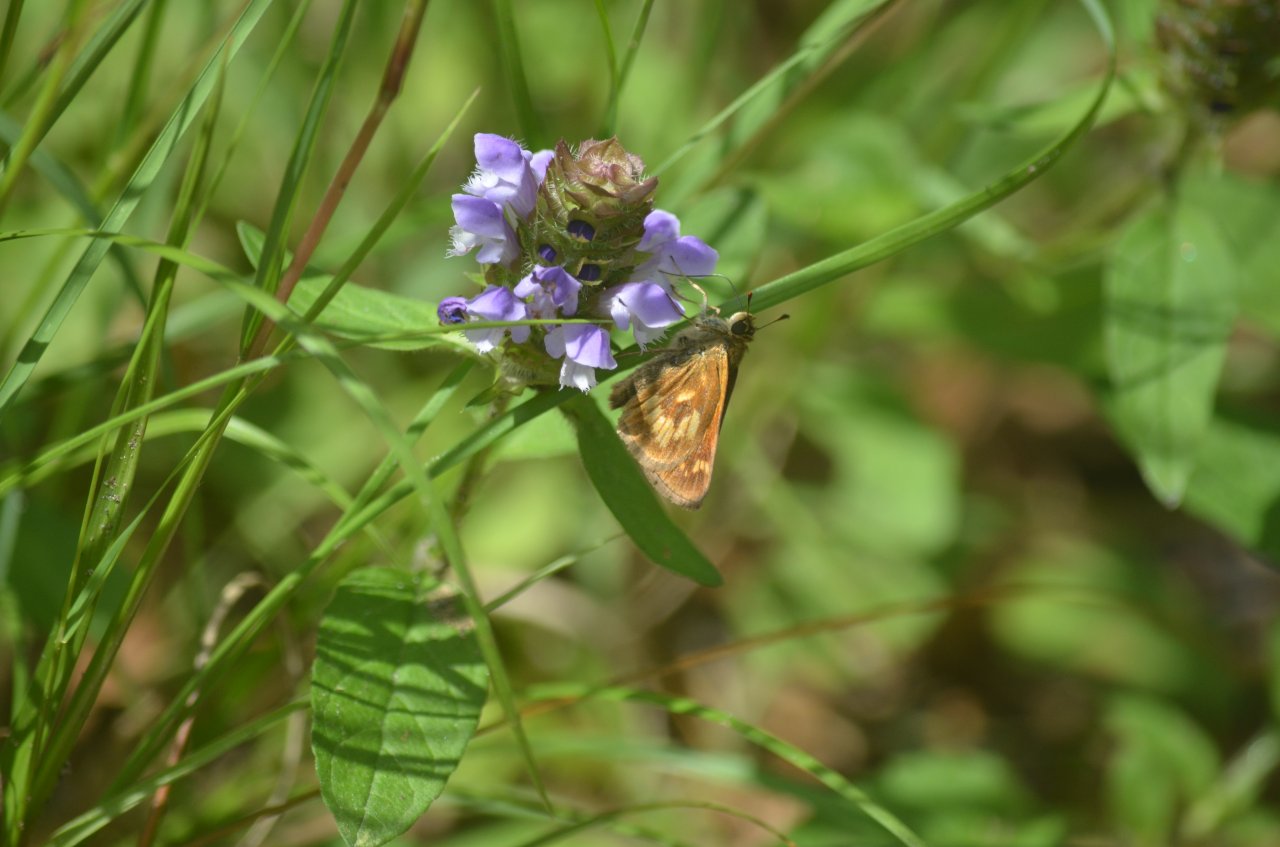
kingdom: Animalia
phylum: Arthropoda
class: Insecta
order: Lepidoptera
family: Hesperiidae
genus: Polites
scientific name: Polites
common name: Long Dash Skipper
